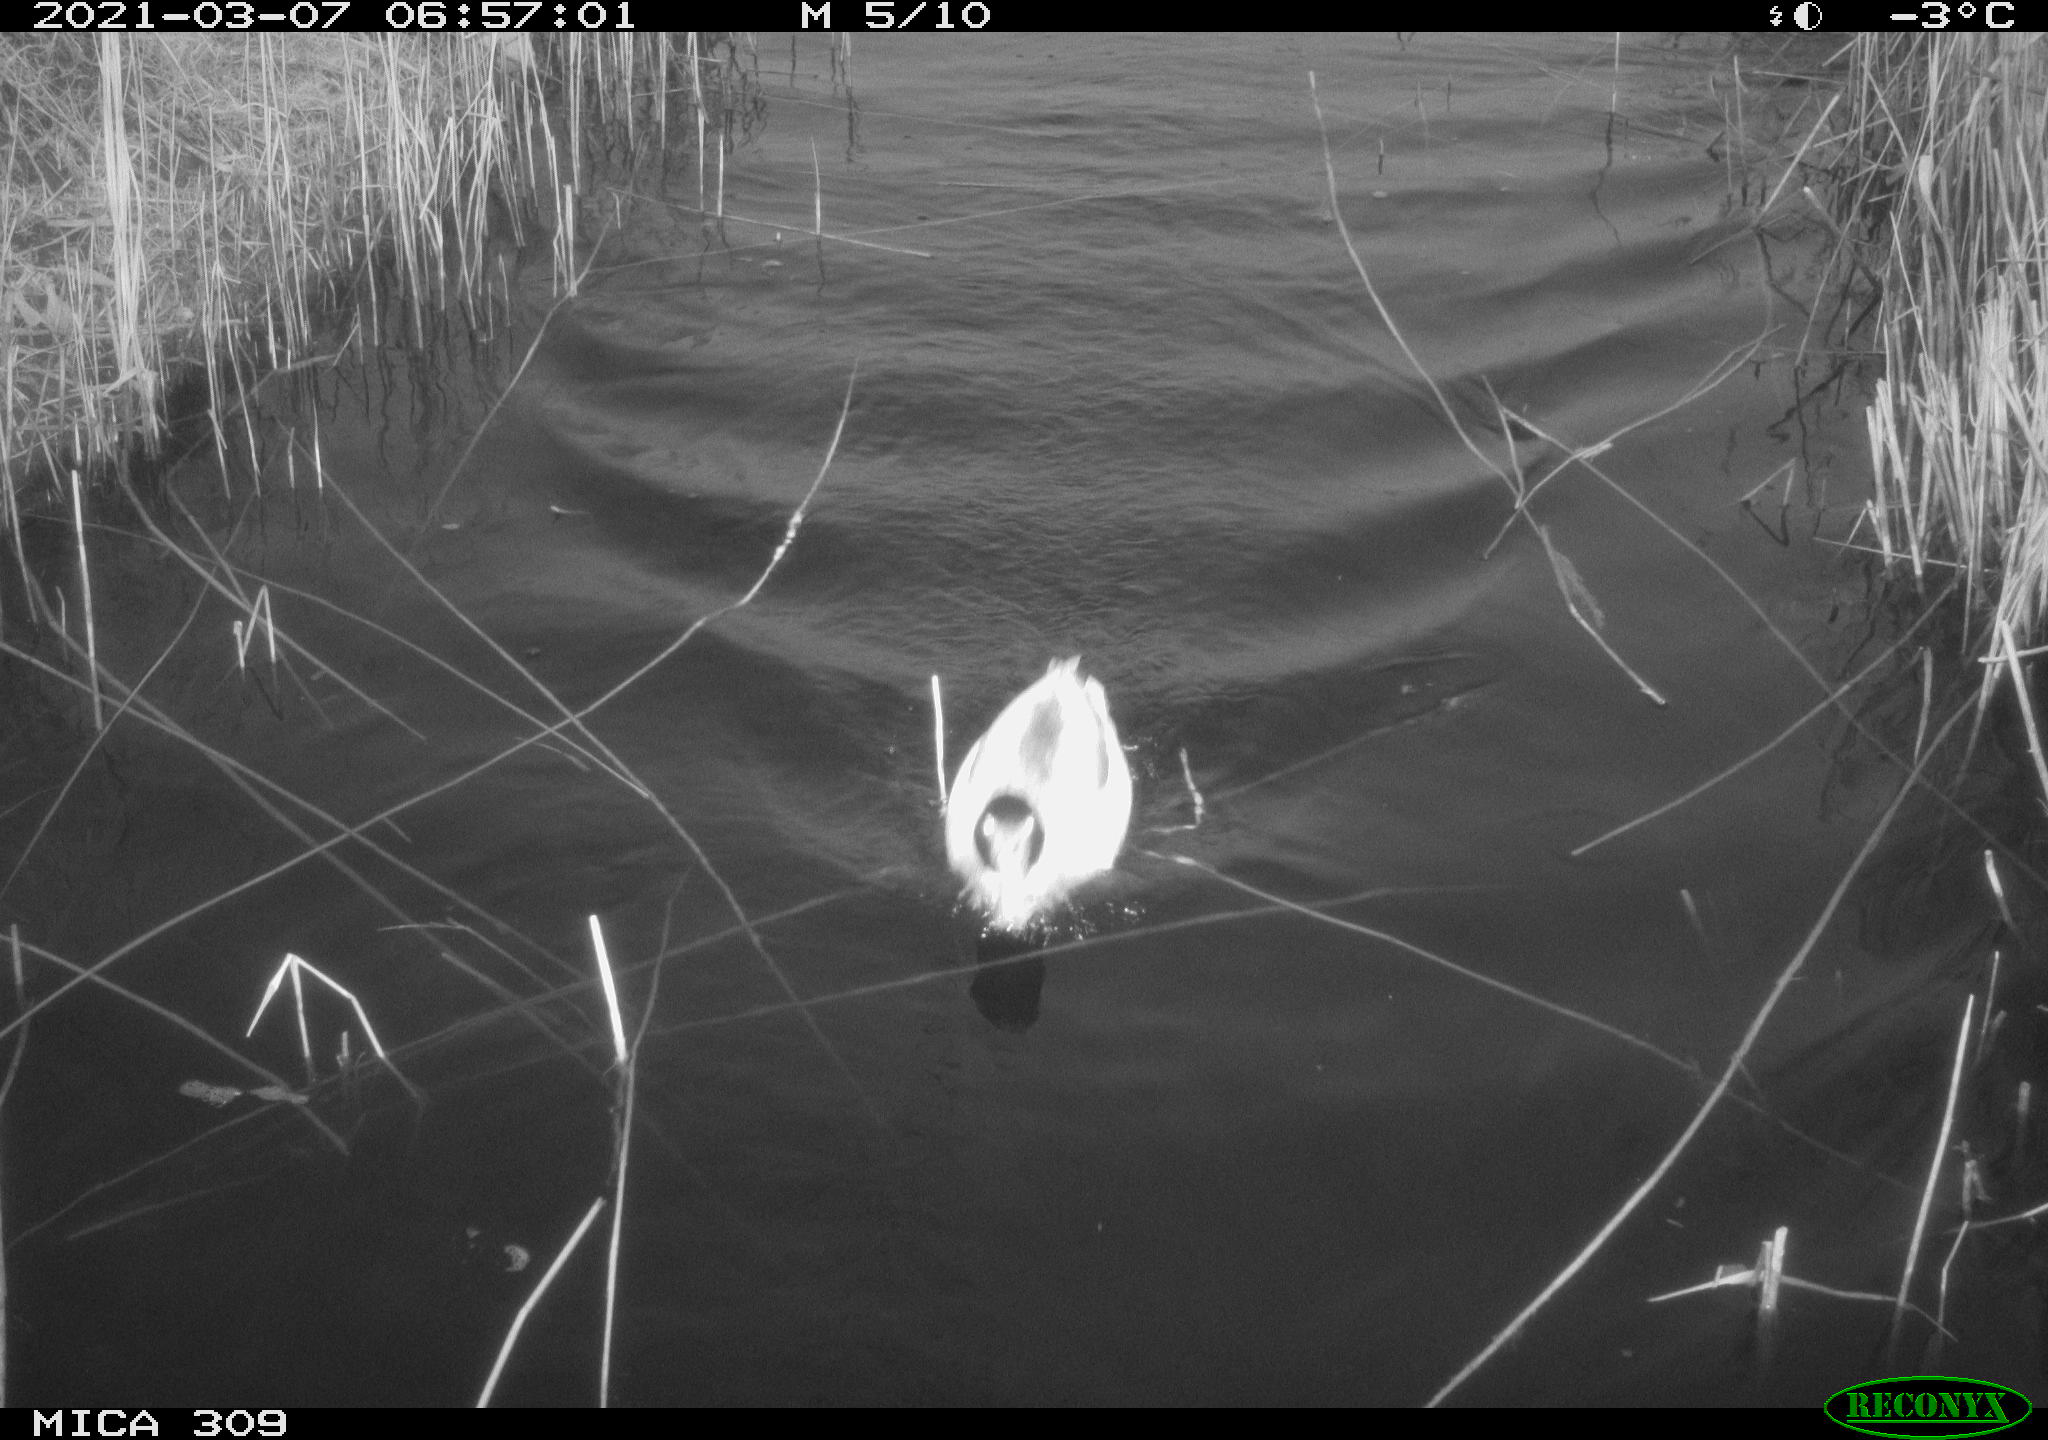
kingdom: Animalia
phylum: Chordata
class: Aves
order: Anseriformes
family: Anatidae
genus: Anas
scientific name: Anas platyrhynchos
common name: Mallard
